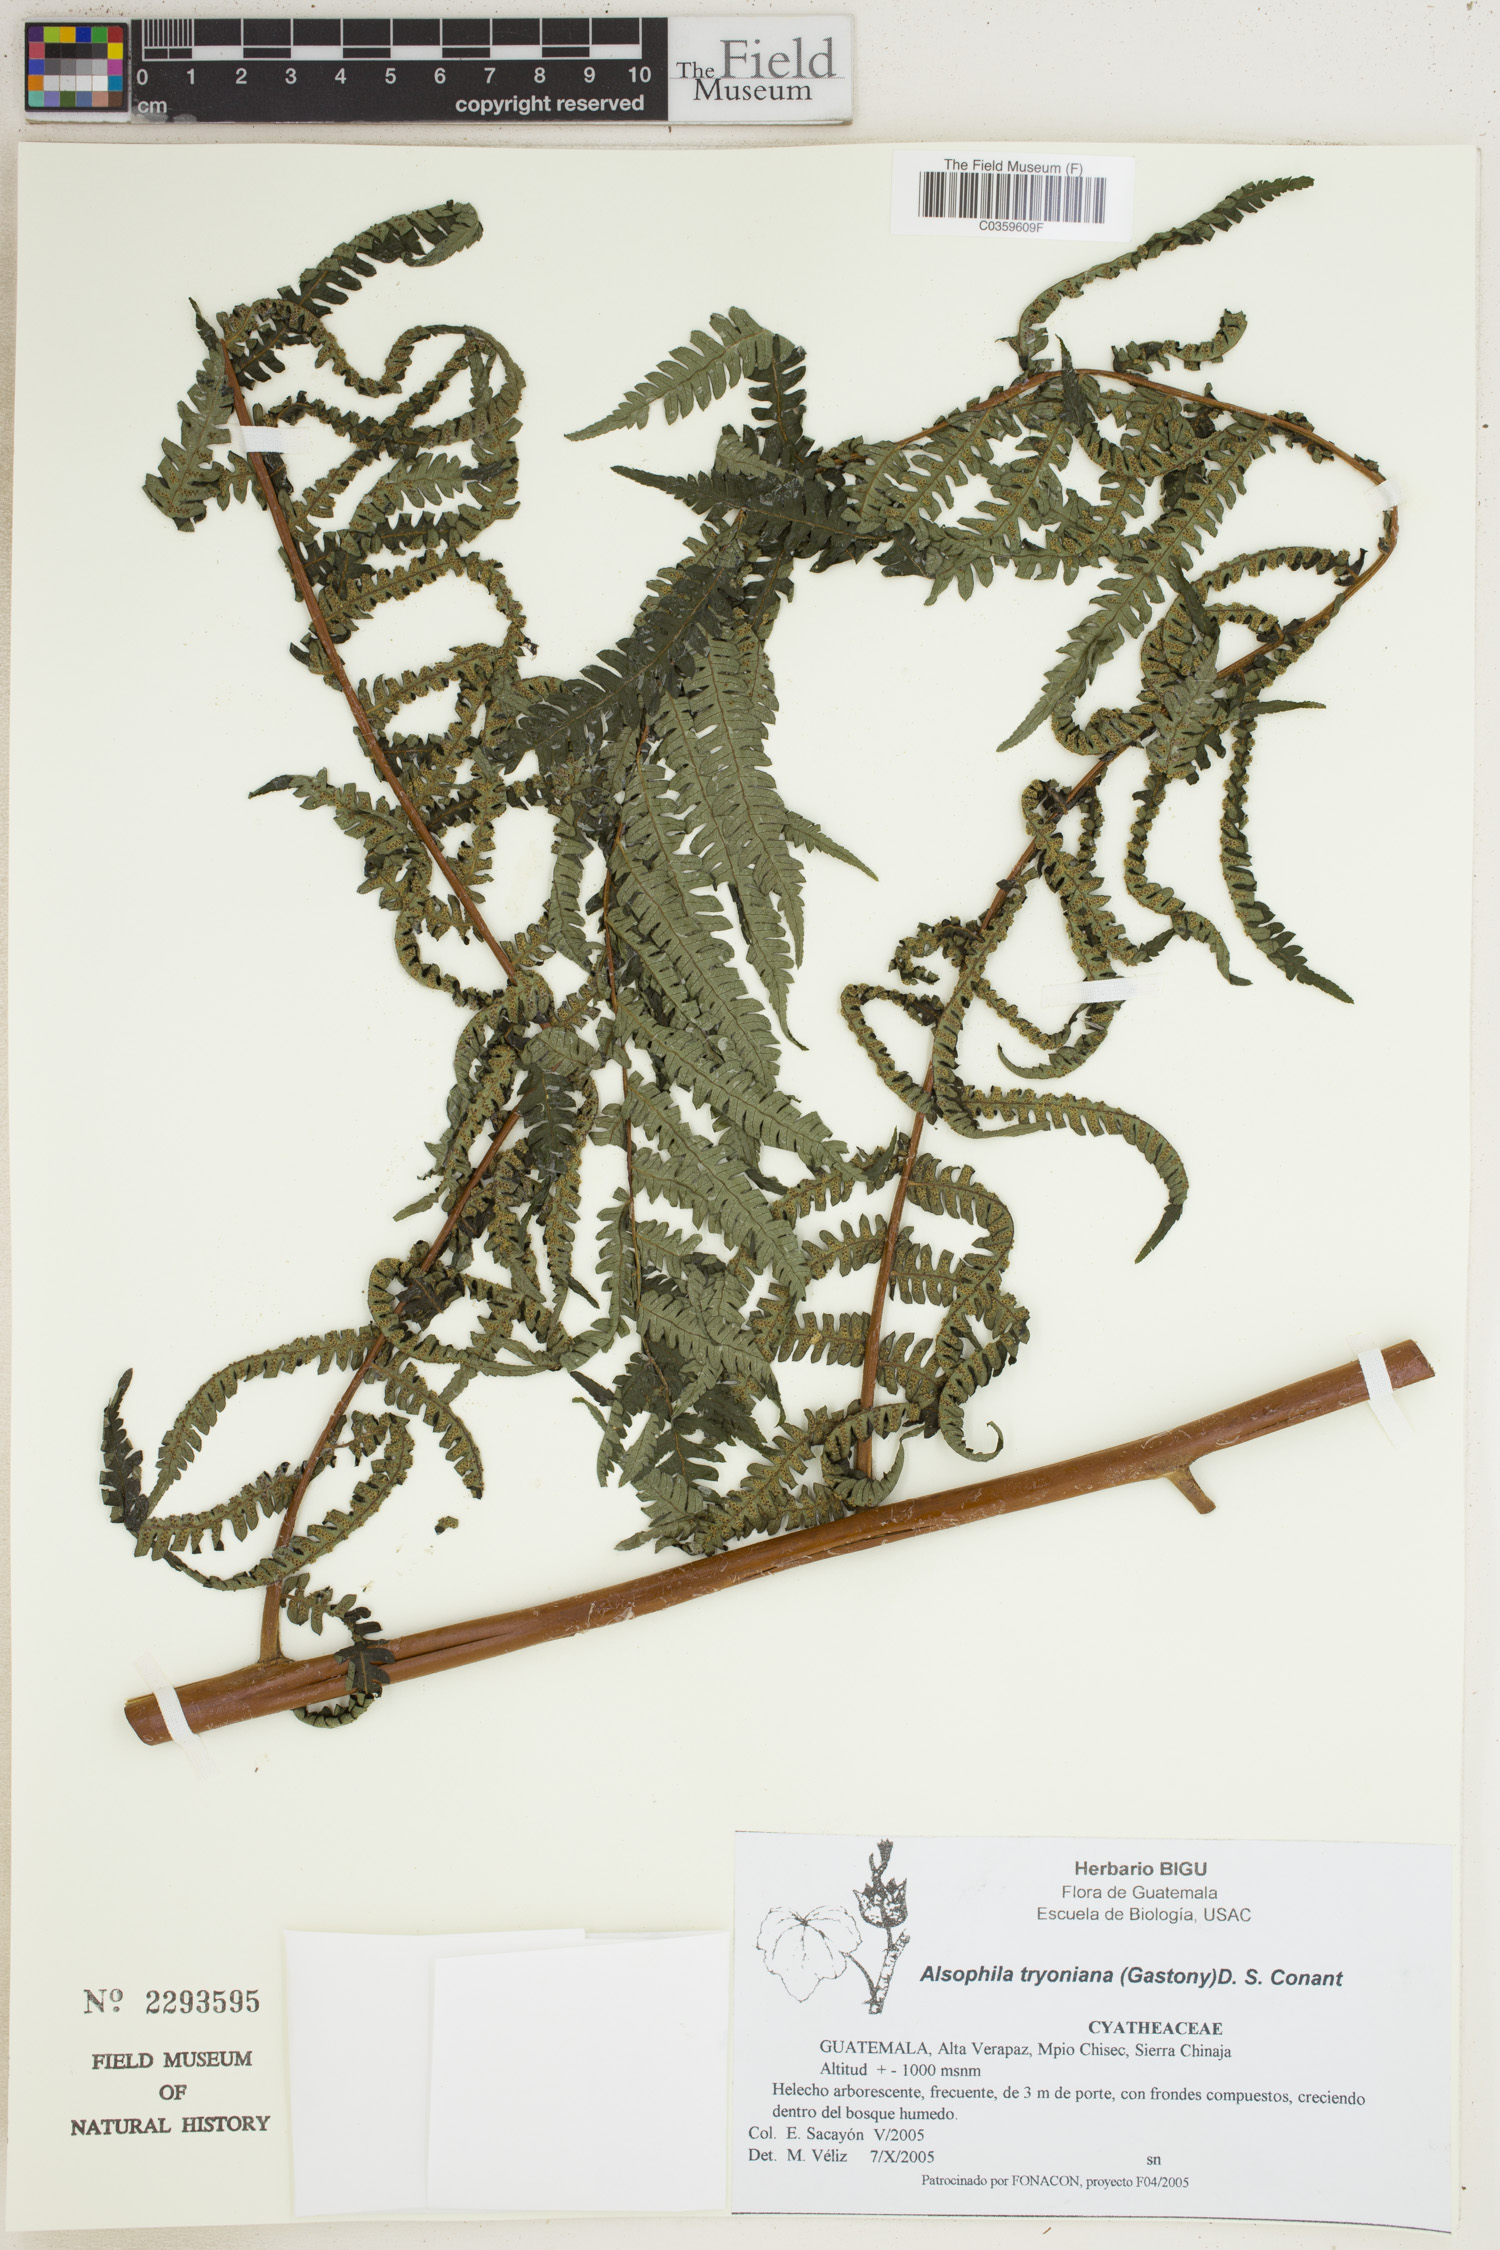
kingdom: Plantae
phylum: Tracheophyta
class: Polypodiopsida
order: Cyatheales
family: Cyatheaceae
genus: Alsophila
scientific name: Alsophila tryoniana
